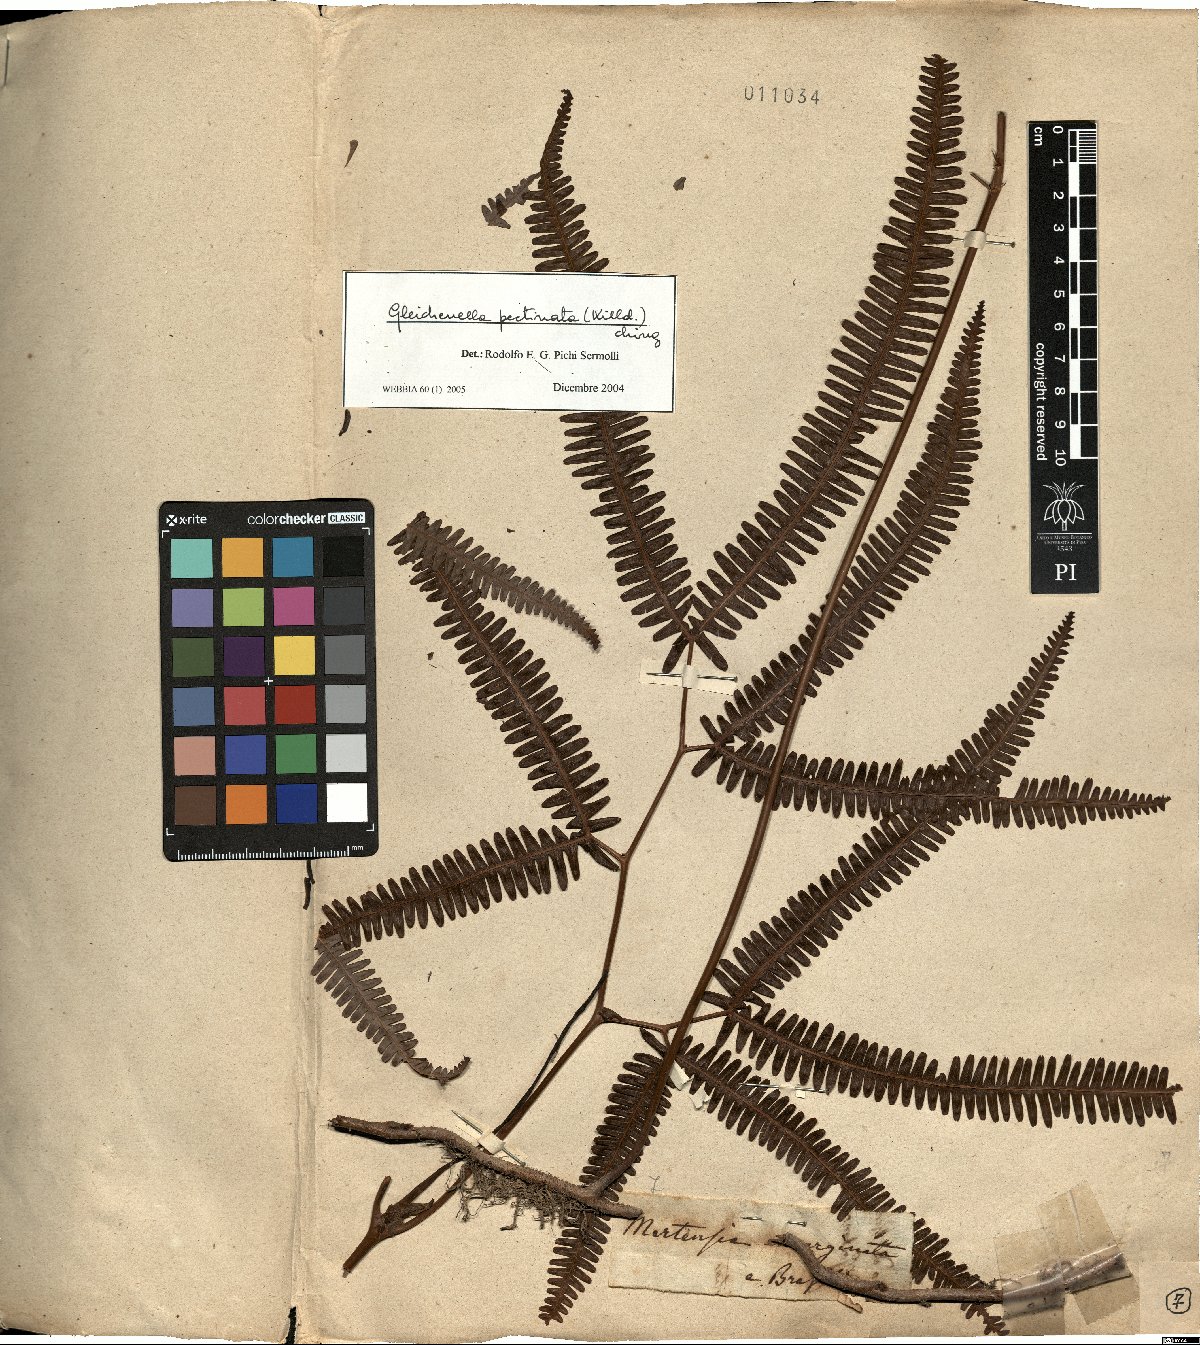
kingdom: Plantae
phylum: Tracheophyta
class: Polypodiopsida
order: Gleicheniales
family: Gleicheniaceae
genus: Gleichenella
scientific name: Gleichenella pectinata
